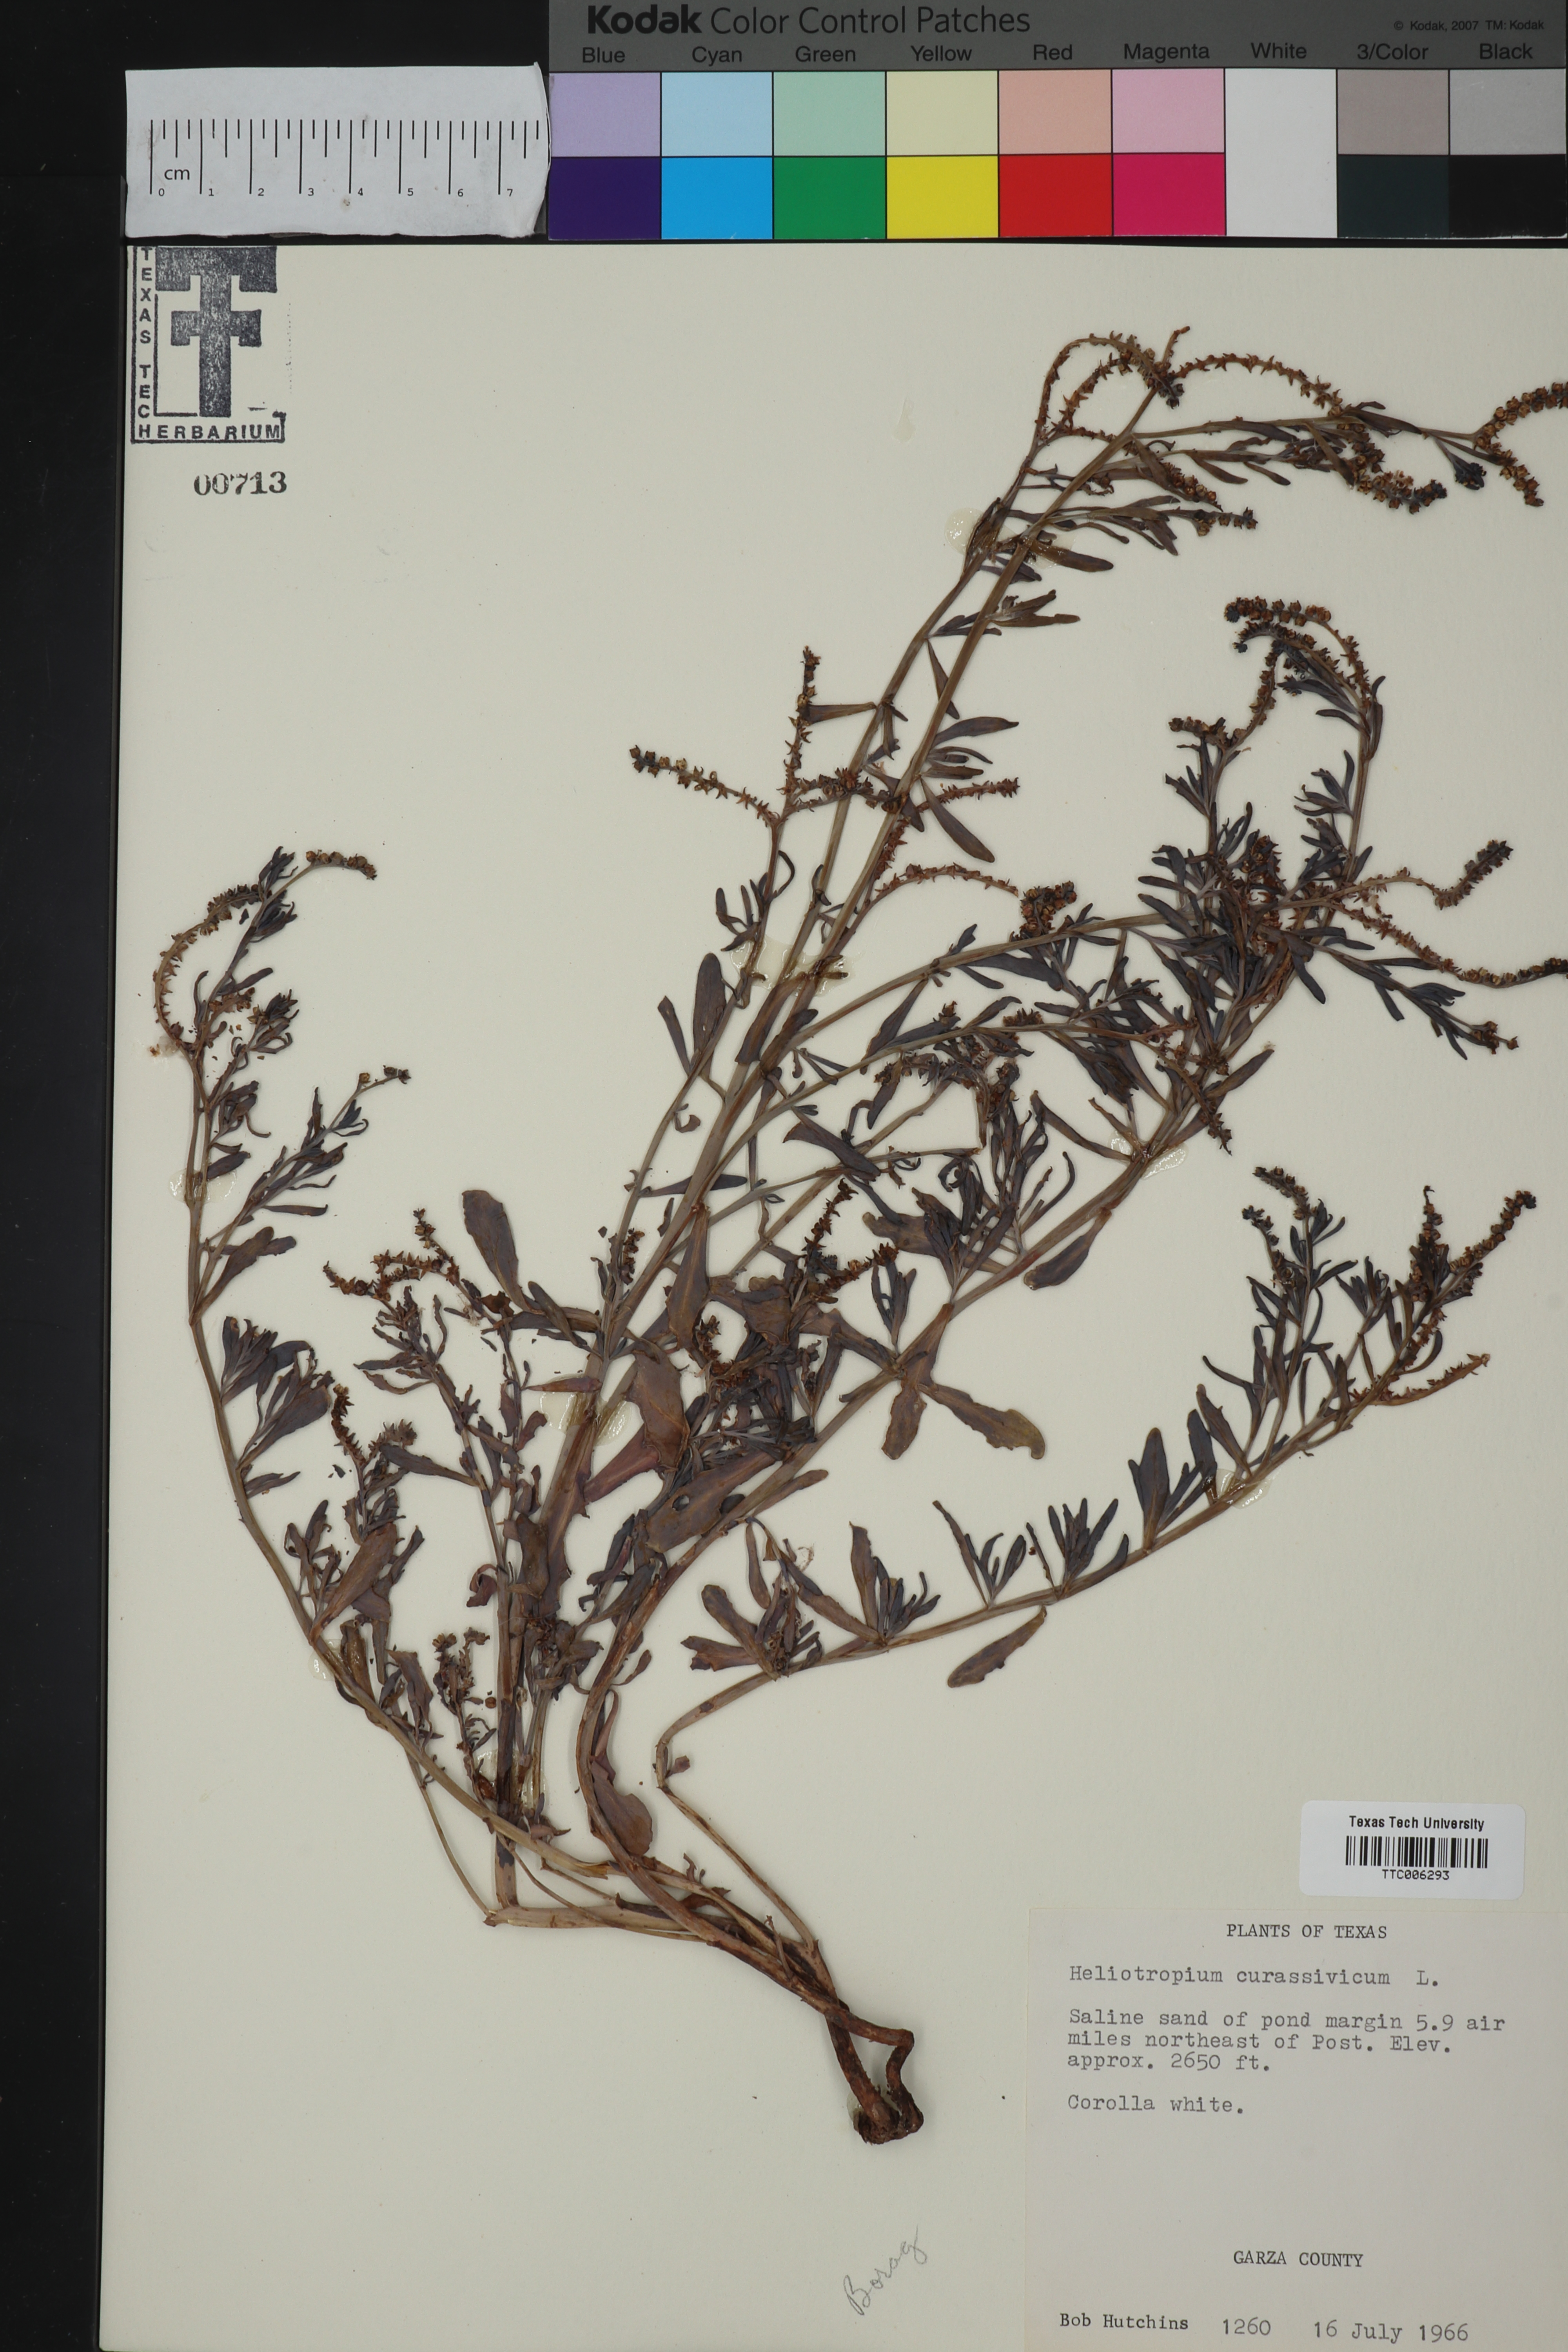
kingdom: Plantae
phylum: Tracheophyta
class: Magnoliopsida
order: Boraginales
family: Heliotropiaceae
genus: Heliotropium
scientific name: Heliotropium curassavicum
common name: Seaside heliotrope
